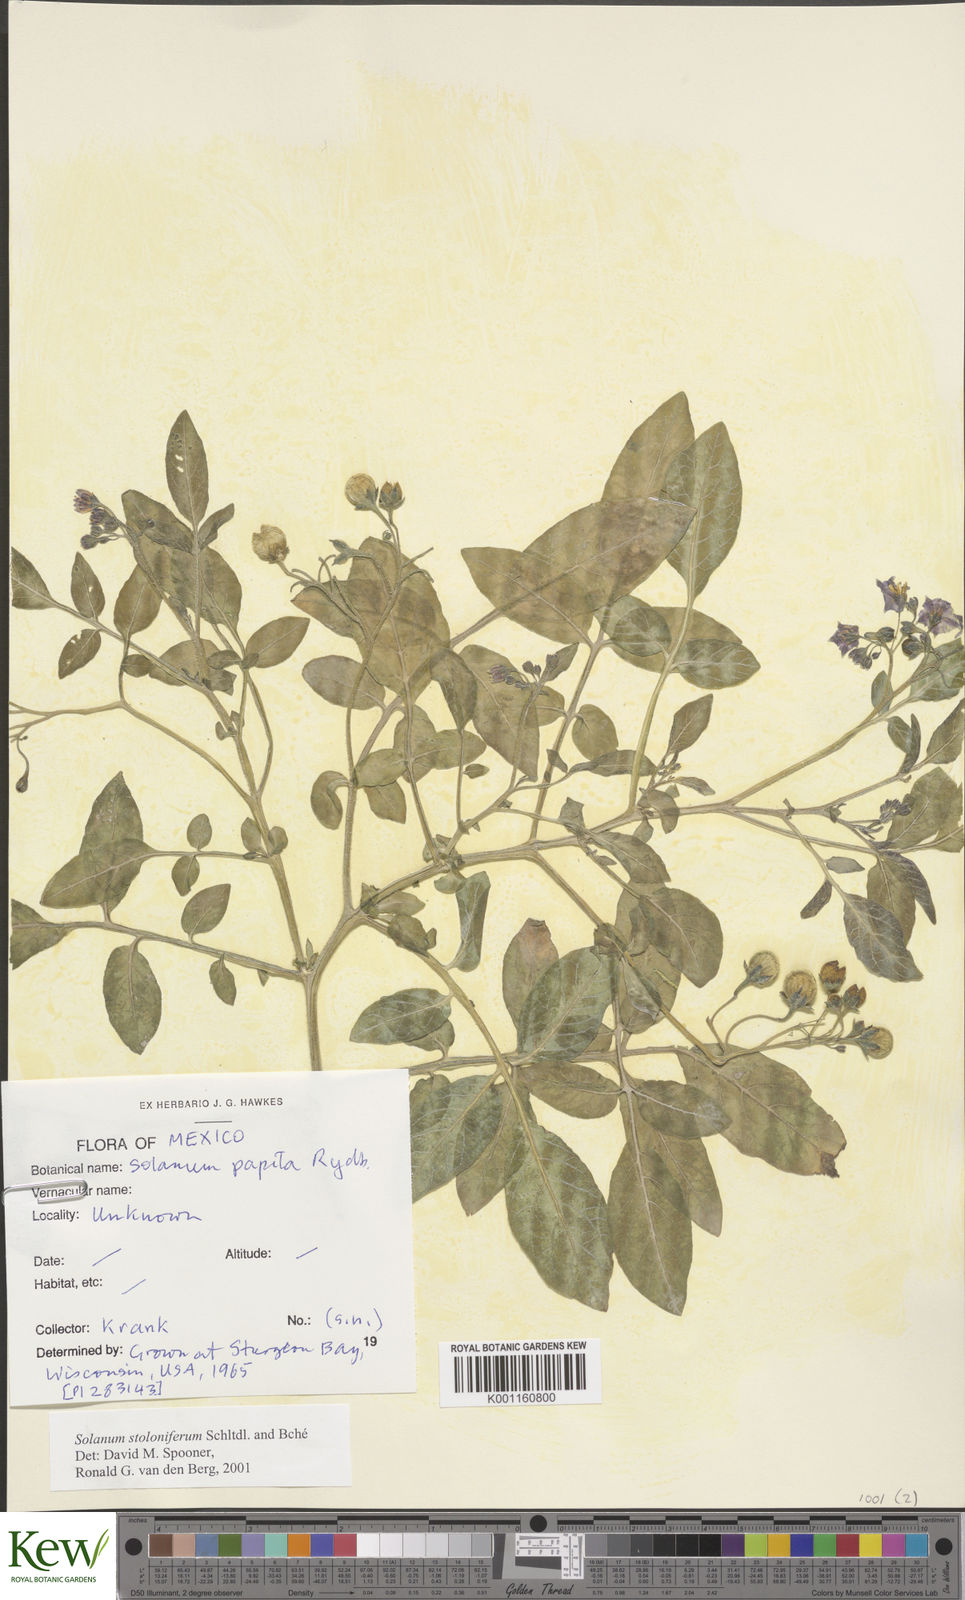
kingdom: Plantae
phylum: Tracheophyta
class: Magnoliopsida
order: Solanales
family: Solanaceae
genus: Solanum
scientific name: Solanum stoloniferum
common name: Fendler's nighshade
